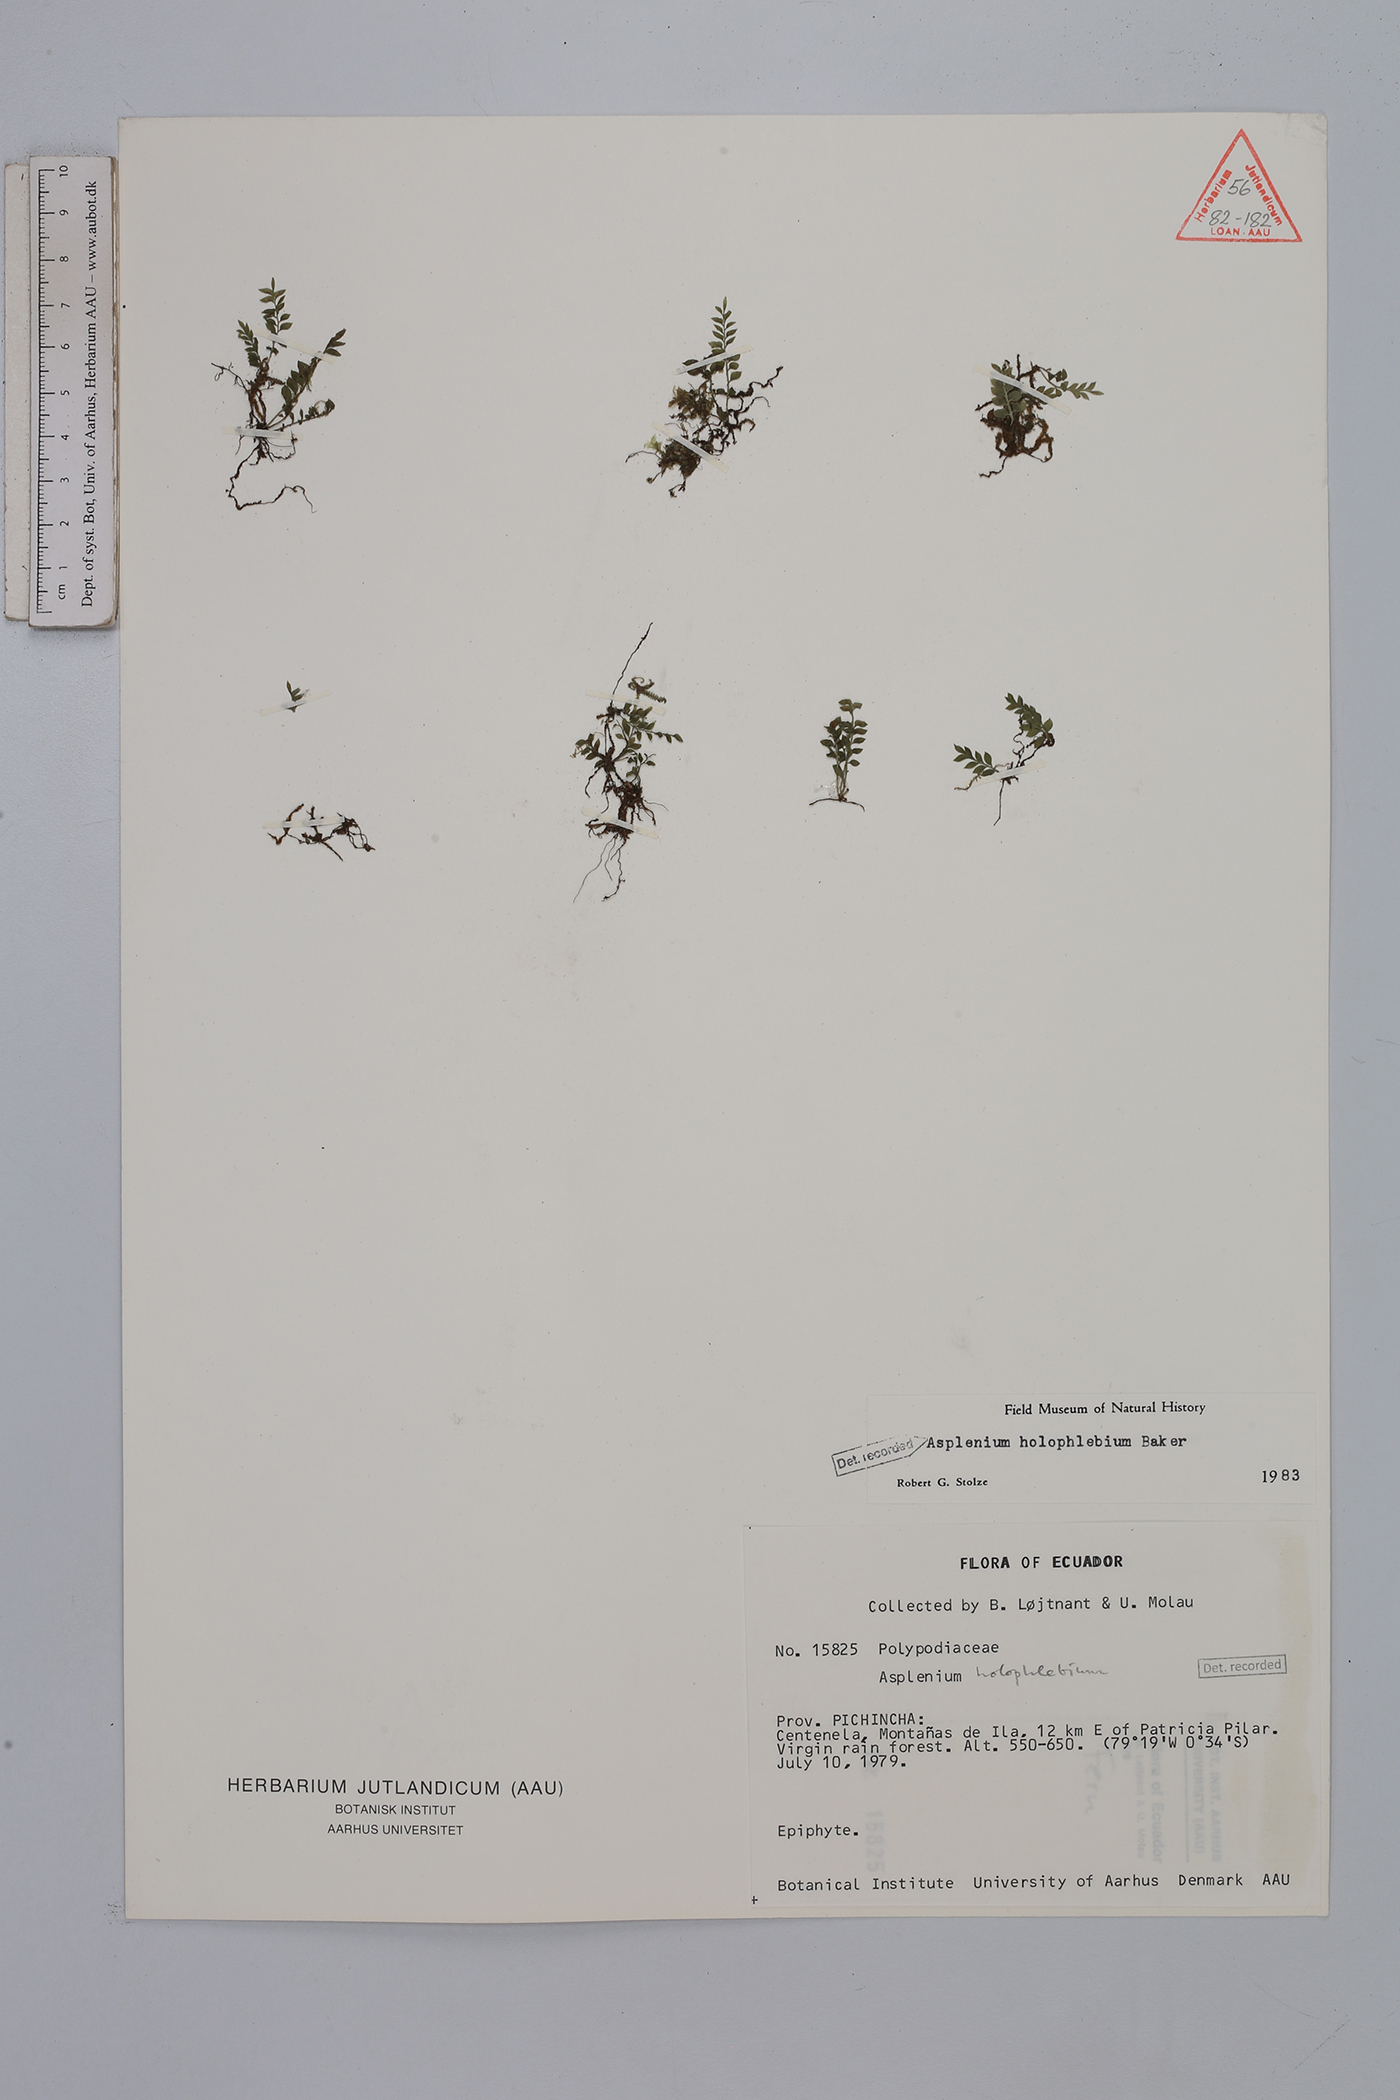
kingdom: Plantae
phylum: Tracheophyta
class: Polypodiopsida
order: Polypodiales
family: Aspleniaceae
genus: Asplenium
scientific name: Asplenium holophlebium
